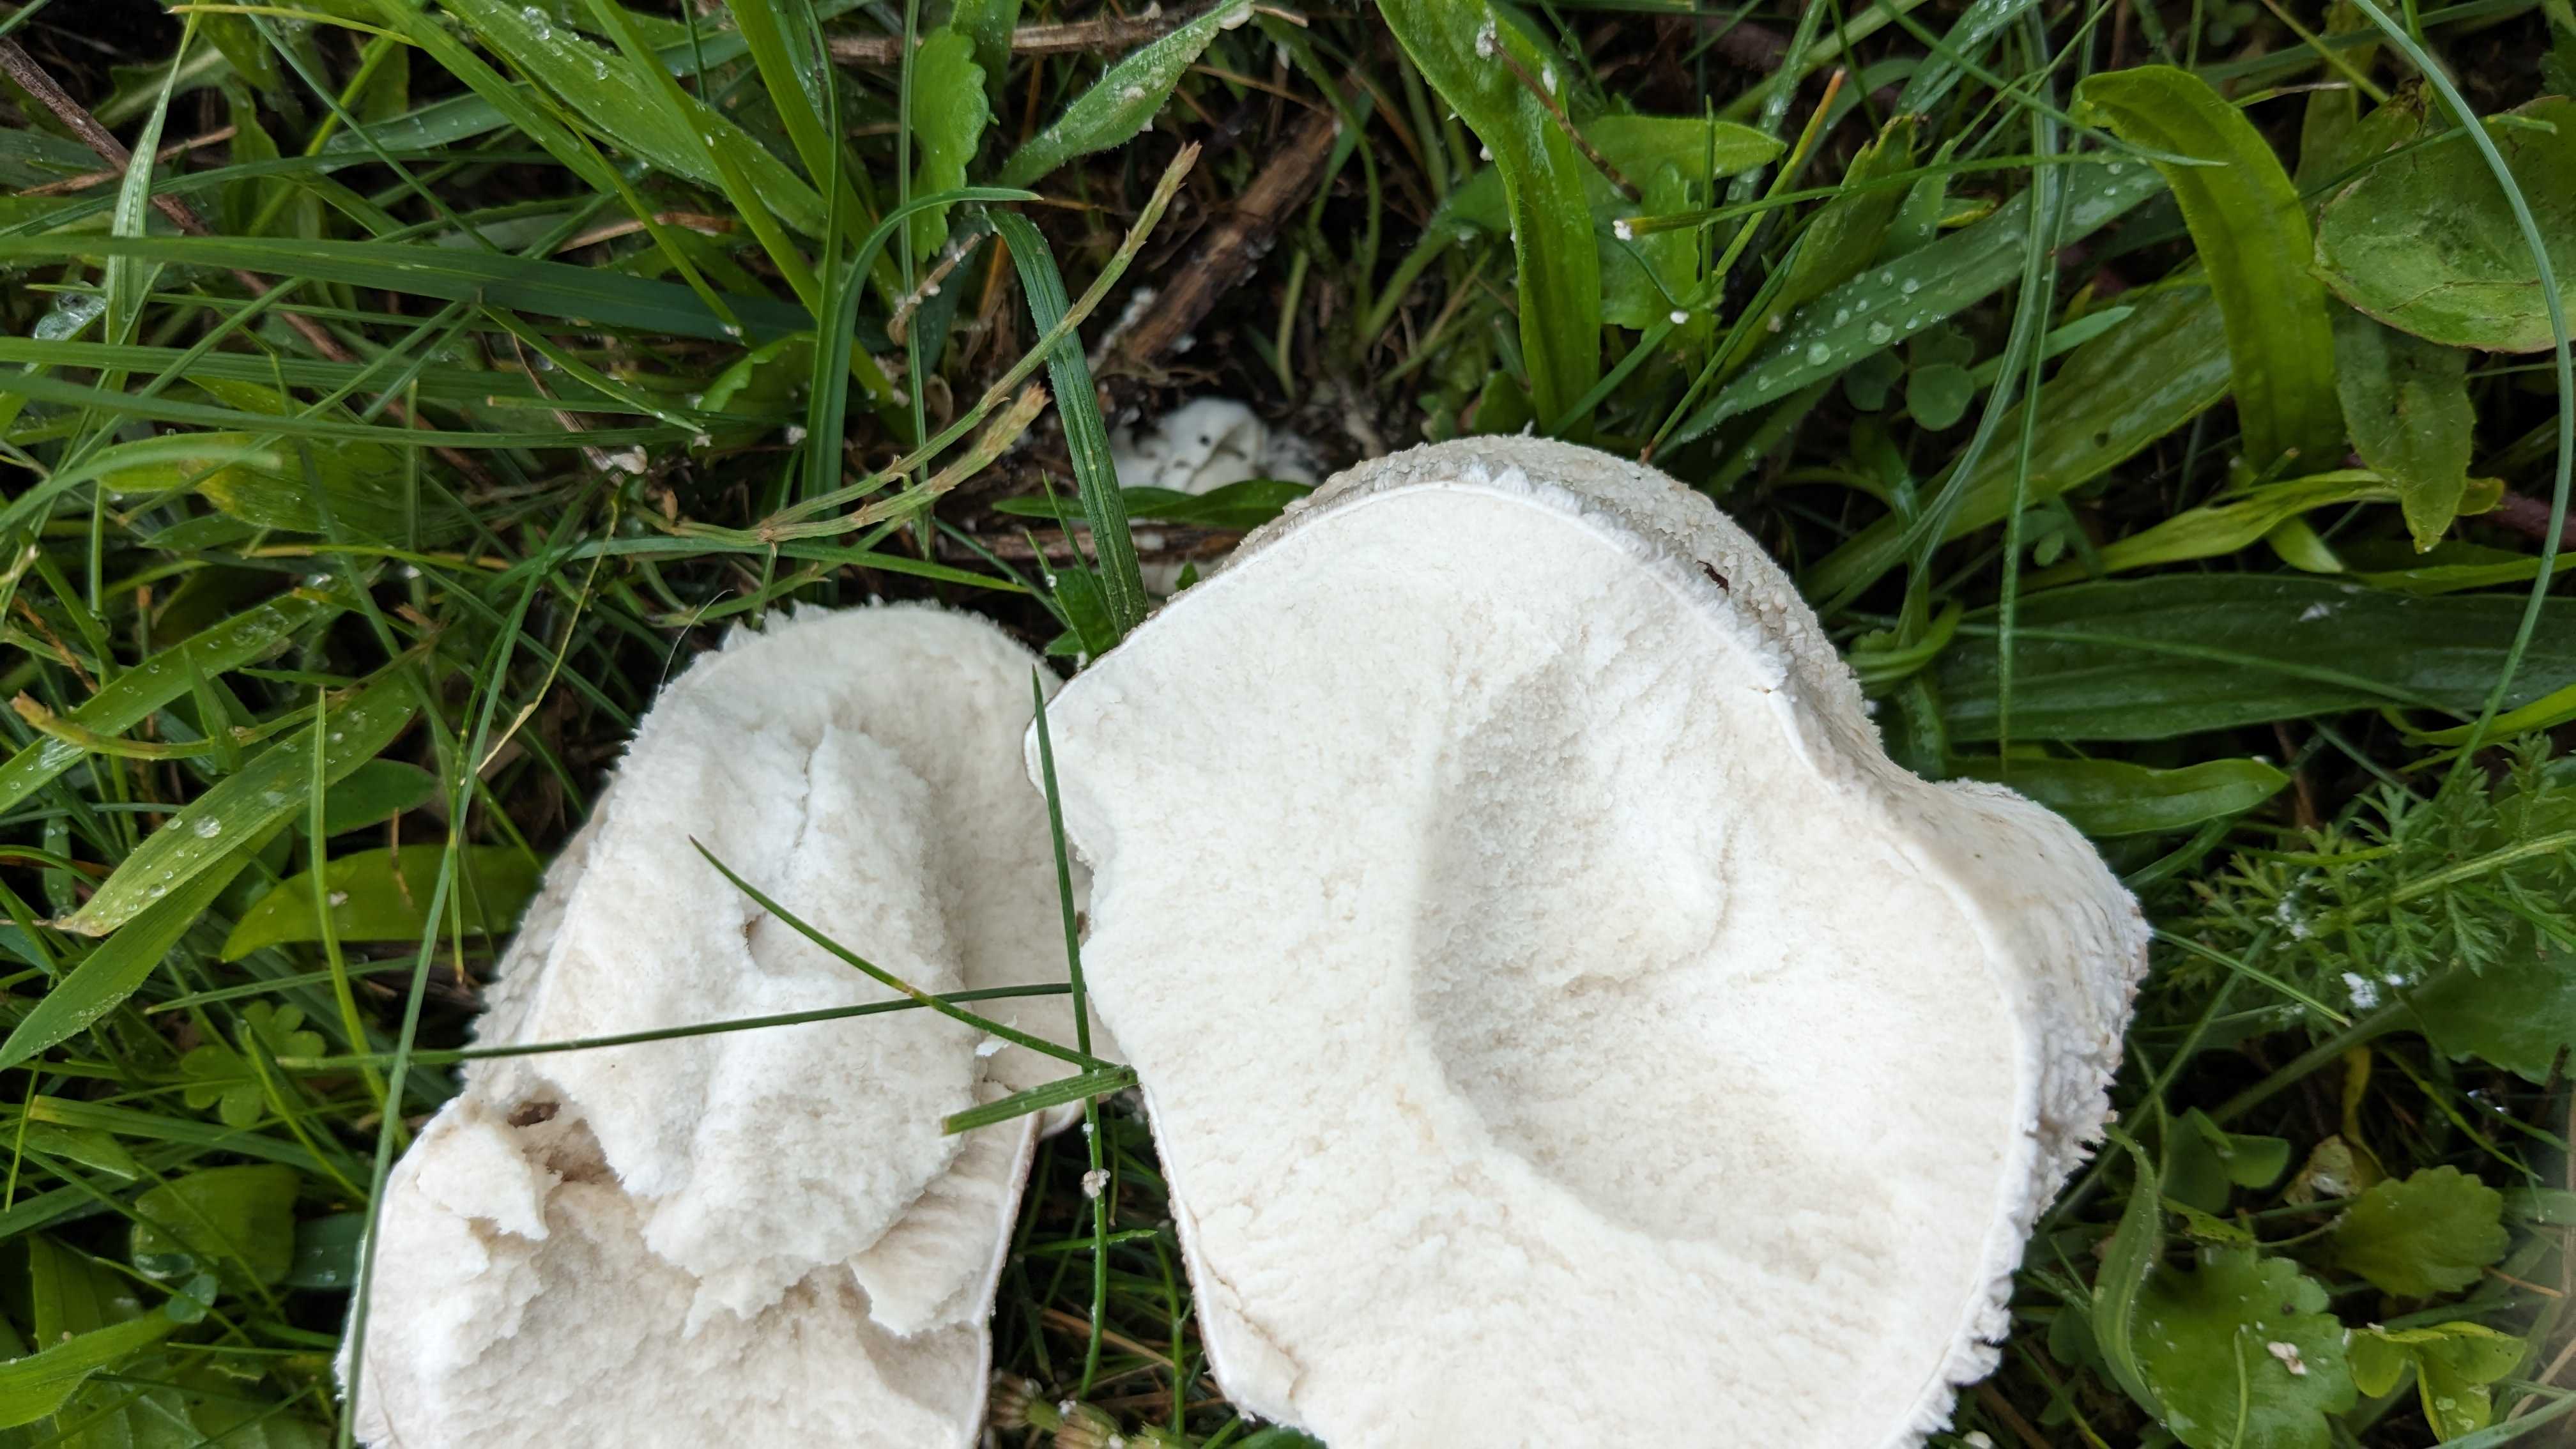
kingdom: Fungi
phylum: Basidiomycota
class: Agaricomycetes
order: Agaricales
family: Lycoperdaceae
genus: Bovistella
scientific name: Bovistella utriformis
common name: skællet støvbold
